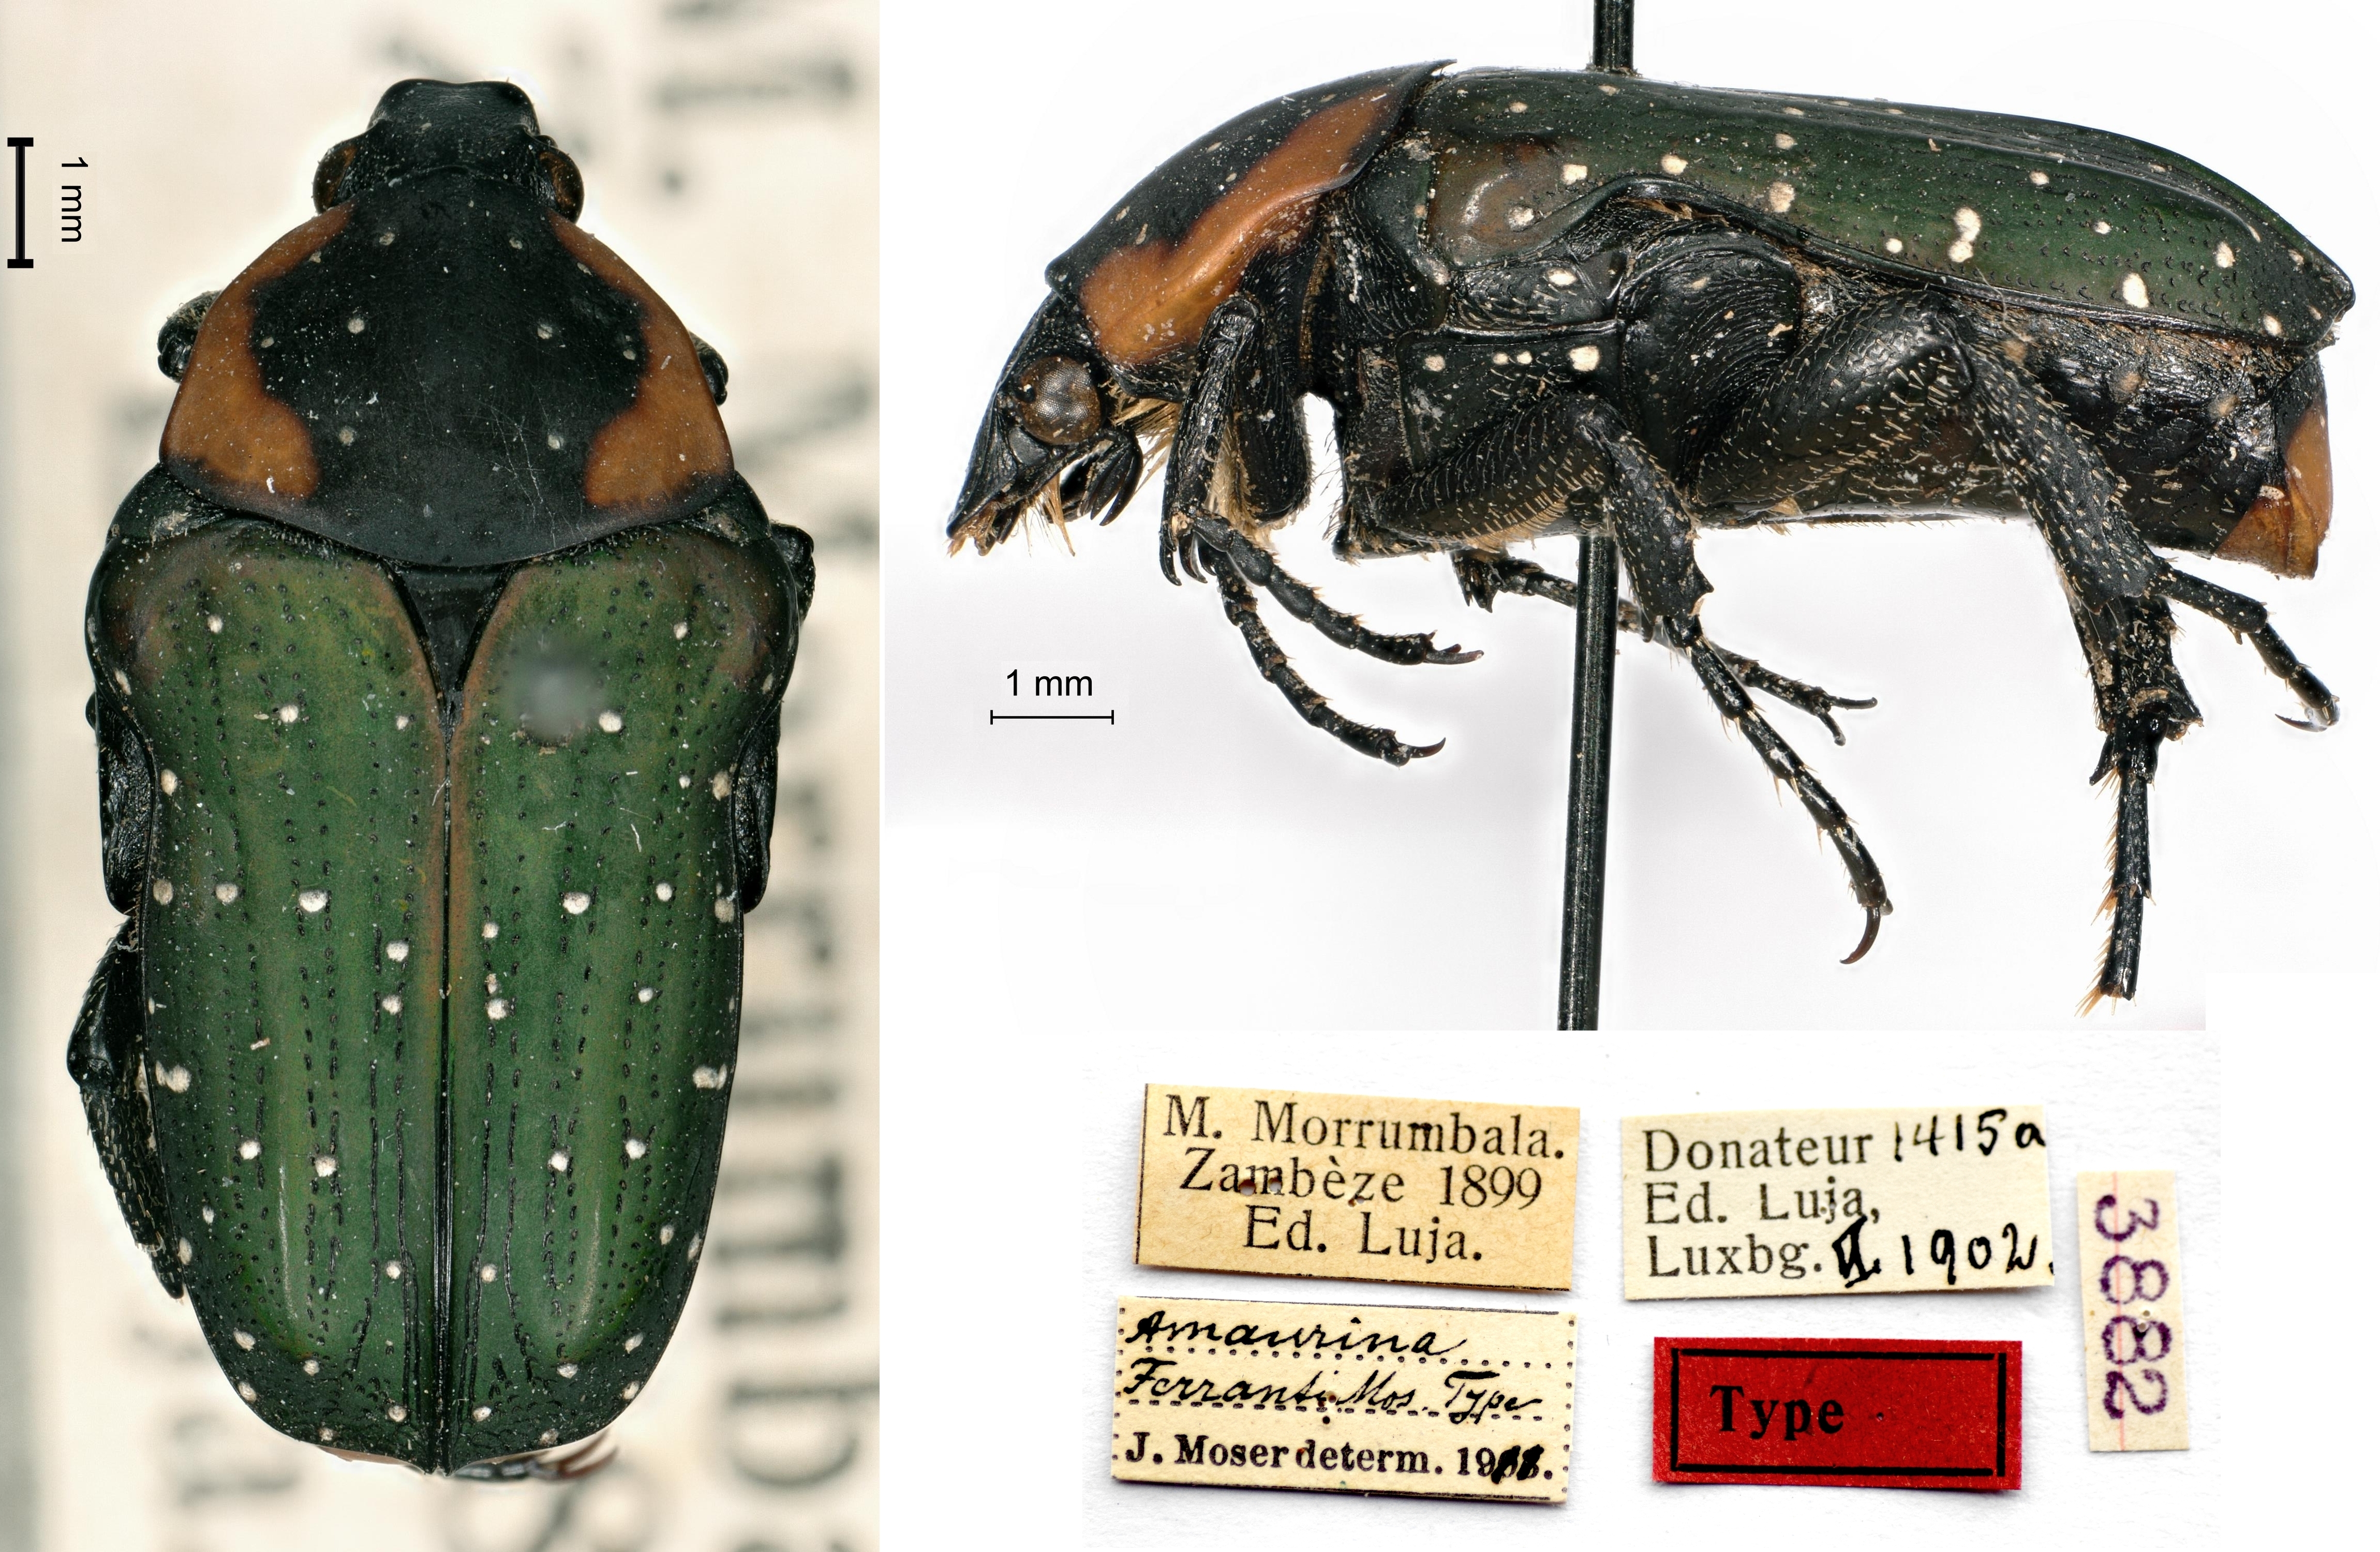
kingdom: Animalia
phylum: Arthropoda
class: Insecta
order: Coleoptera
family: Scarabaeidae
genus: Leucocelis
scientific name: Leucocelis ferranti
